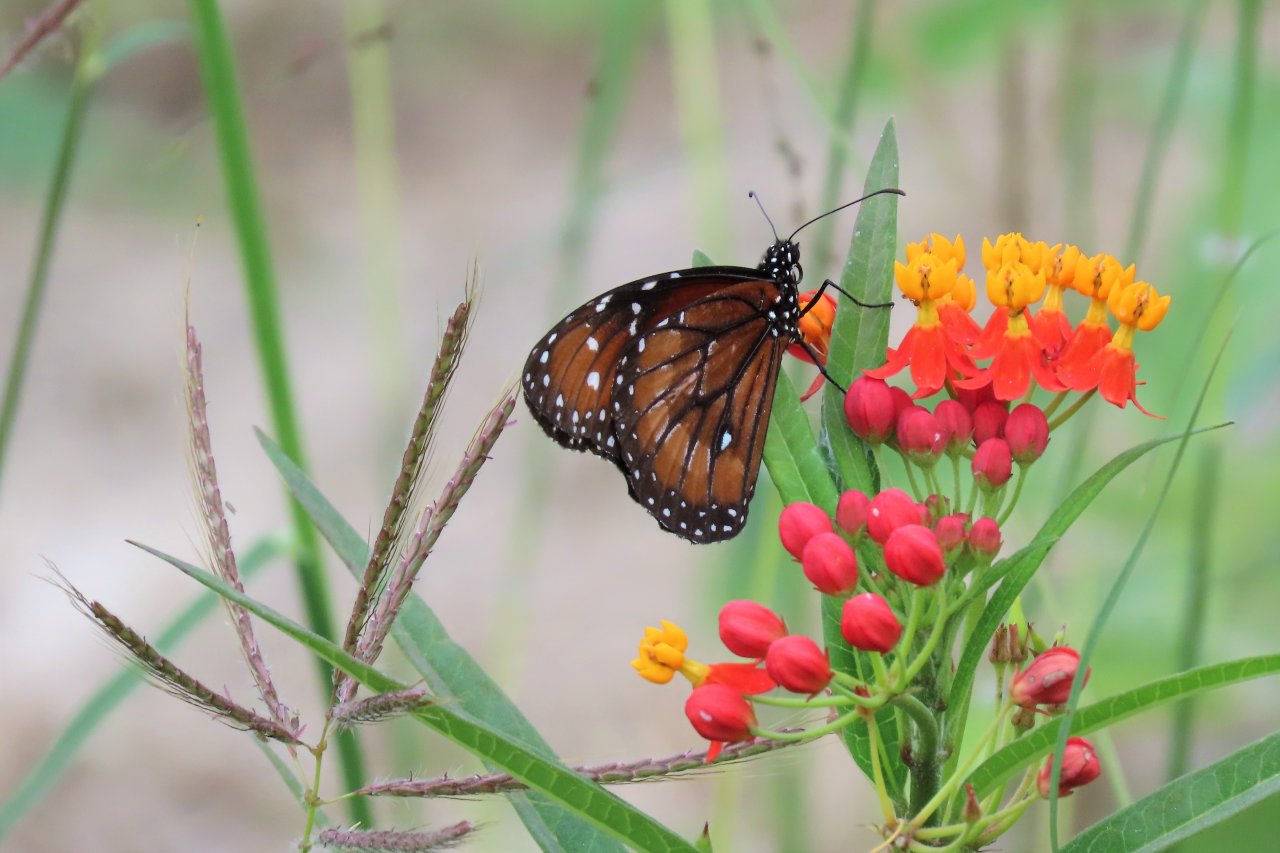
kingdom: Animalia
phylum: Arthropoda
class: Insecta
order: Lepidoptera
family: Nymphalidae
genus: Danaus
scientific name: Danaus eresimus
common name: Soldier
